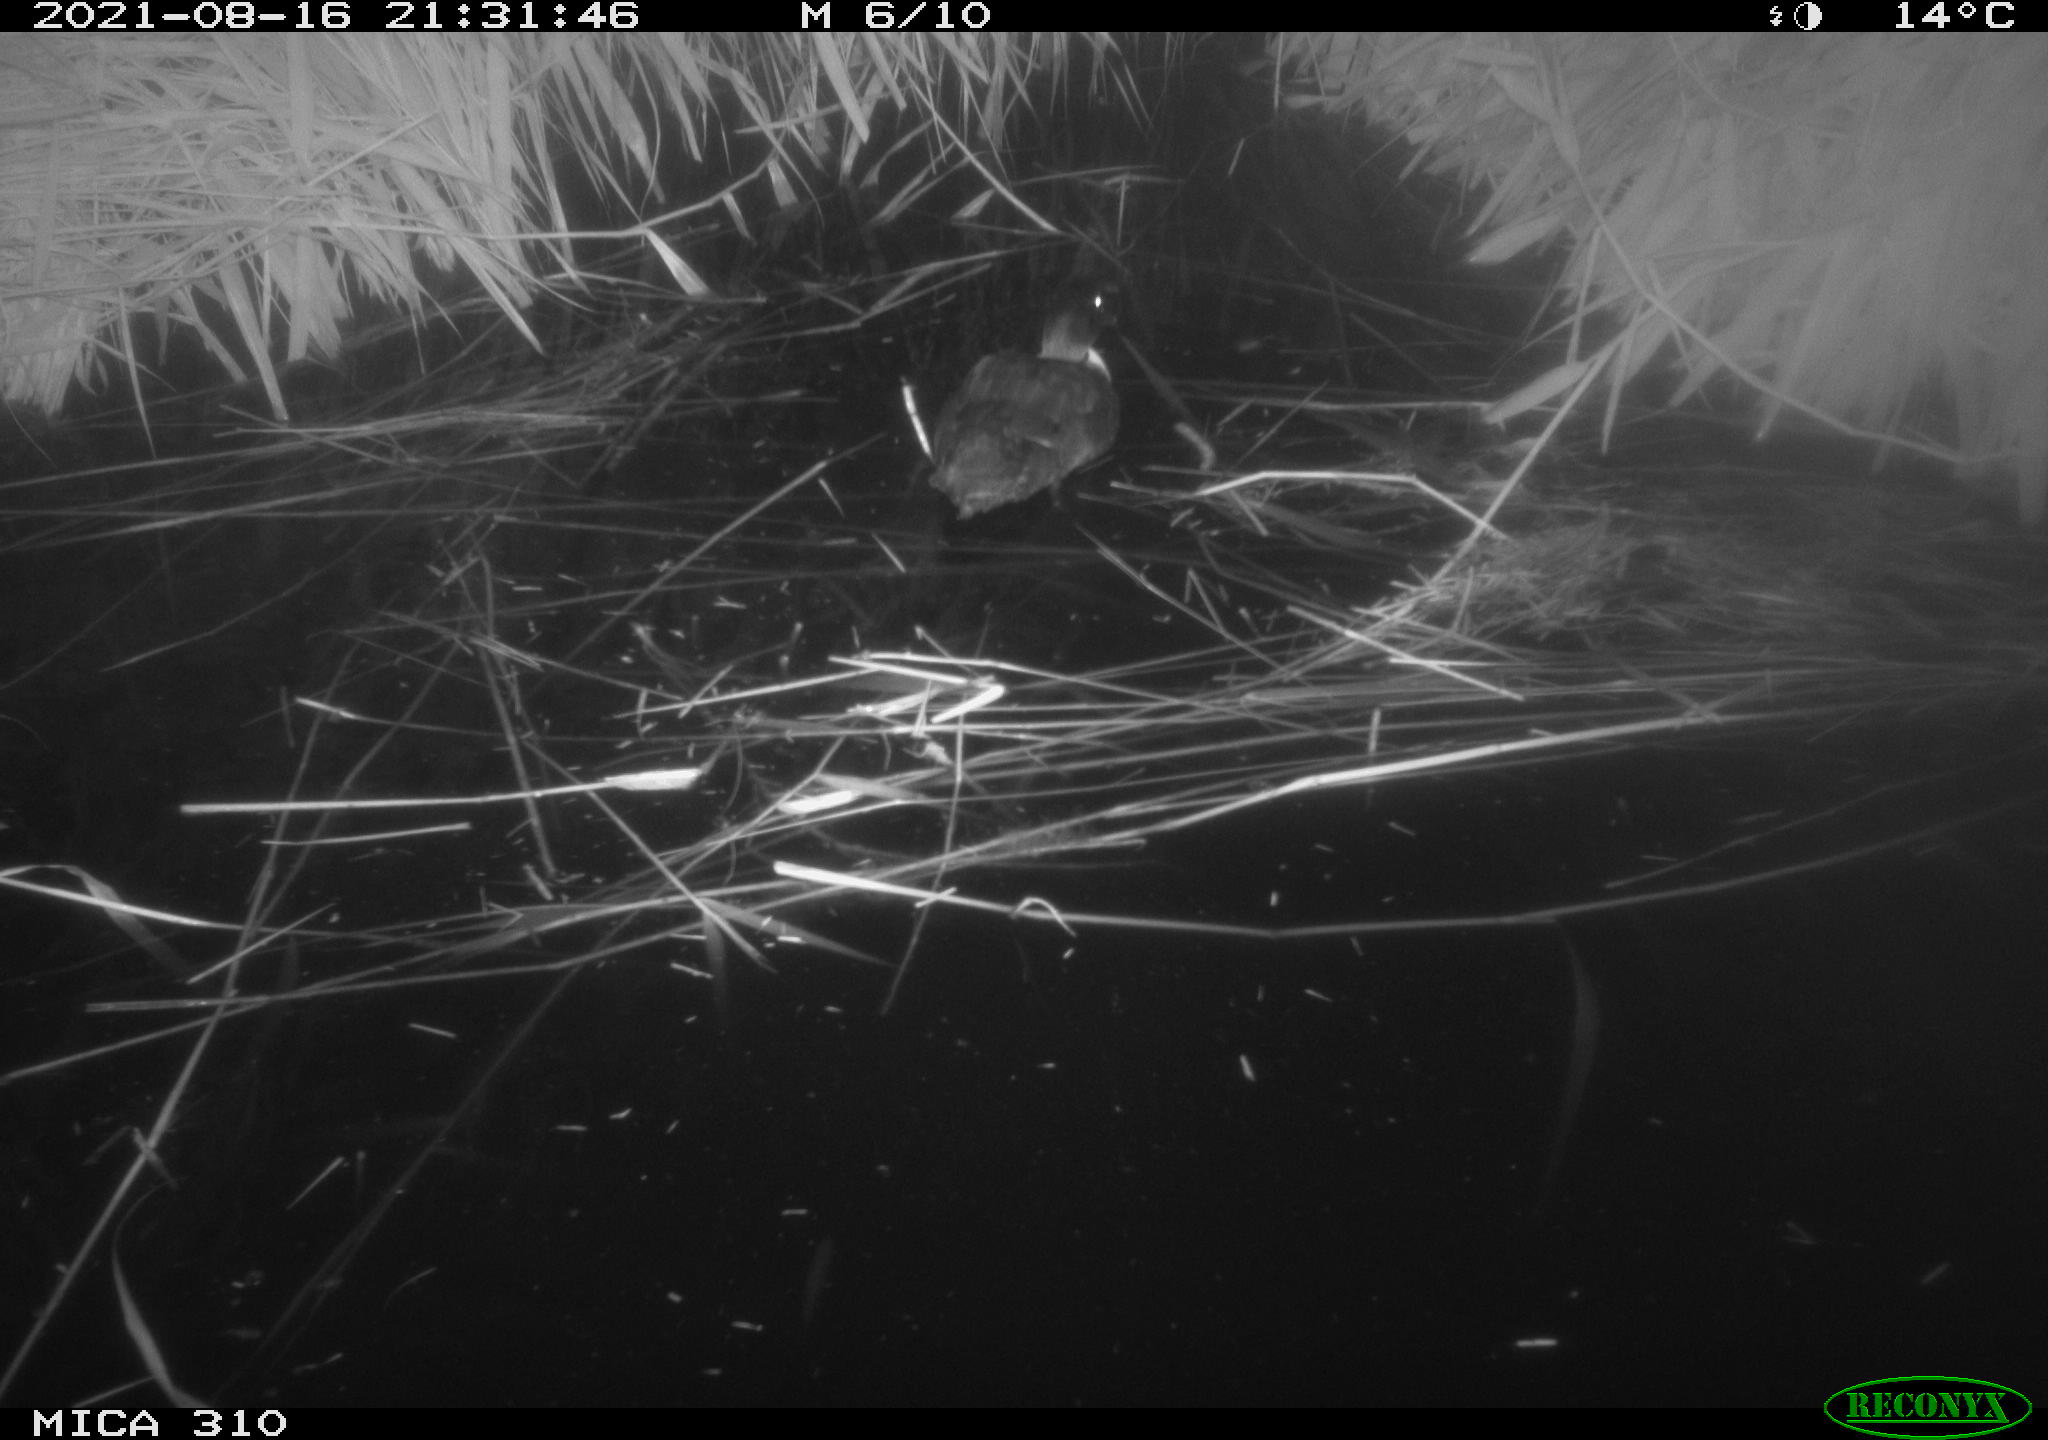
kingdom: Animalia
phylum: Chordata
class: Aves
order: Anseriformes
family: Anatidae
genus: Anas
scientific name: Anas platyrhynchos
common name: Mallard
